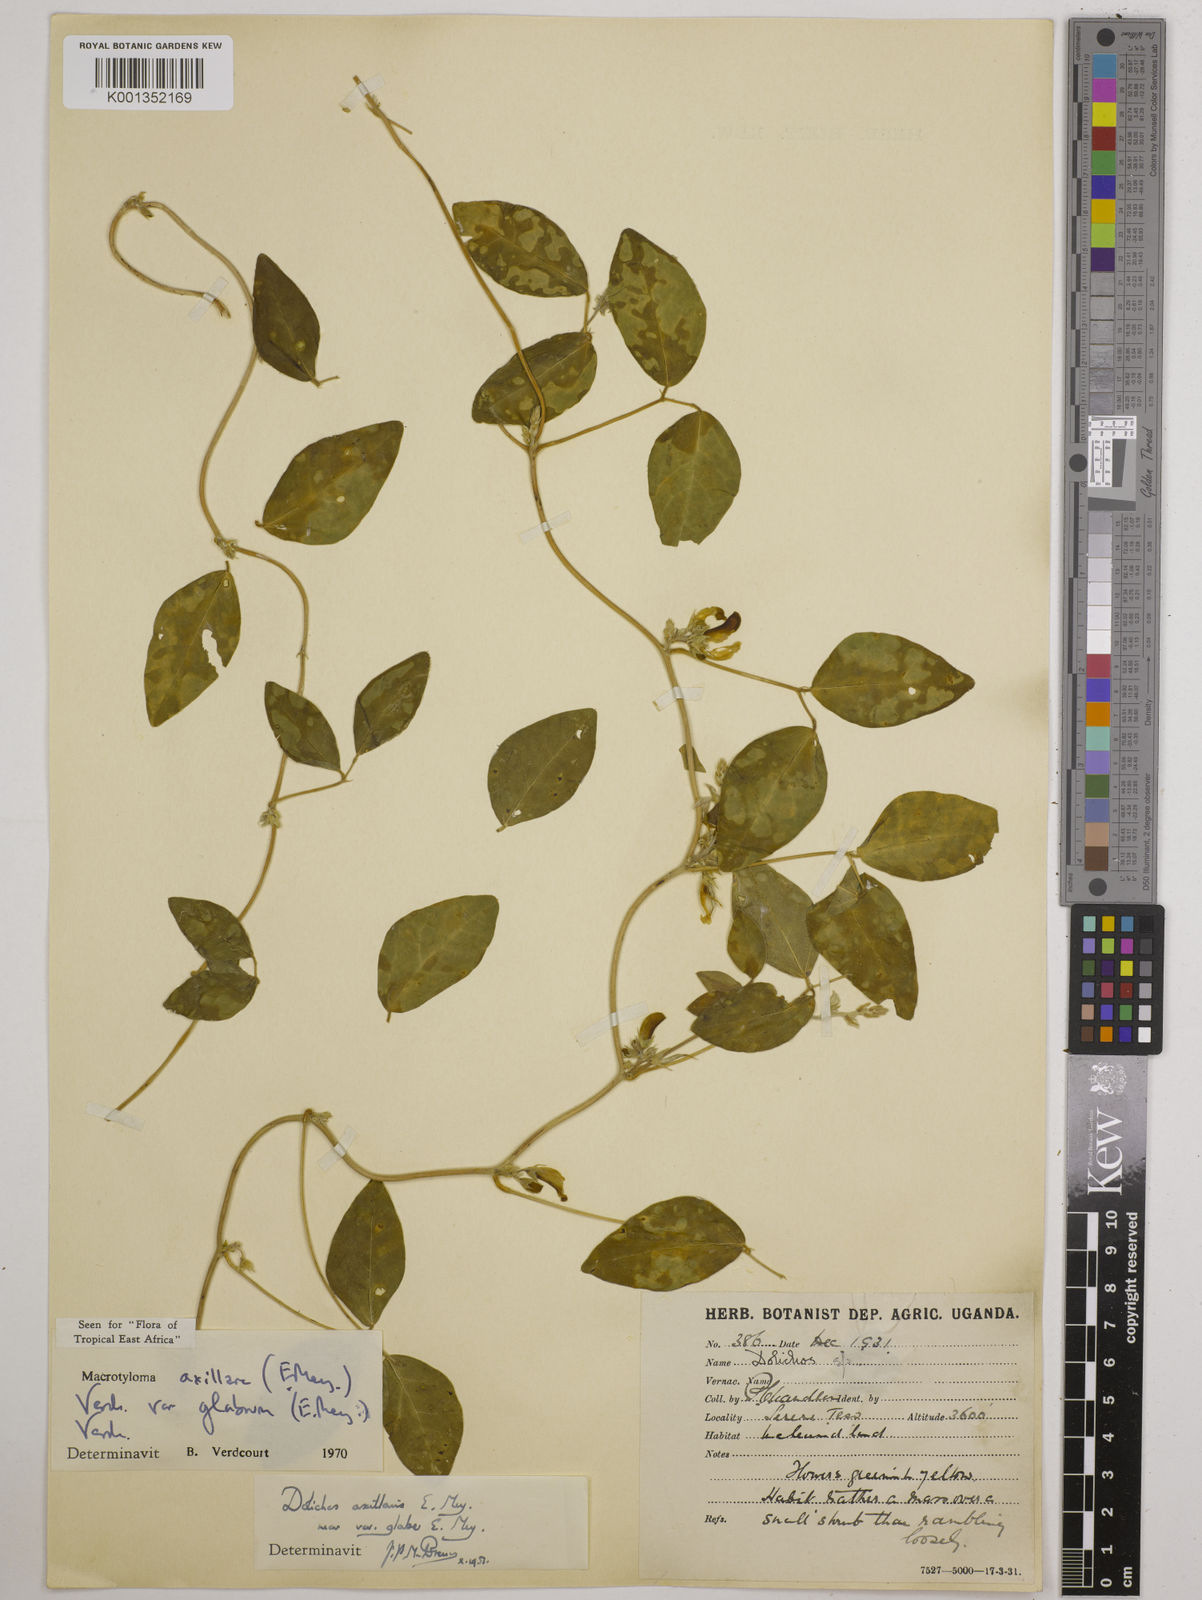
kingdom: Plantae
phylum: Tracheophyta
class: Magnoliopsida
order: Fabales
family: Fabaceae
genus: Macrotyloma
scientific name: Macrotyloma
